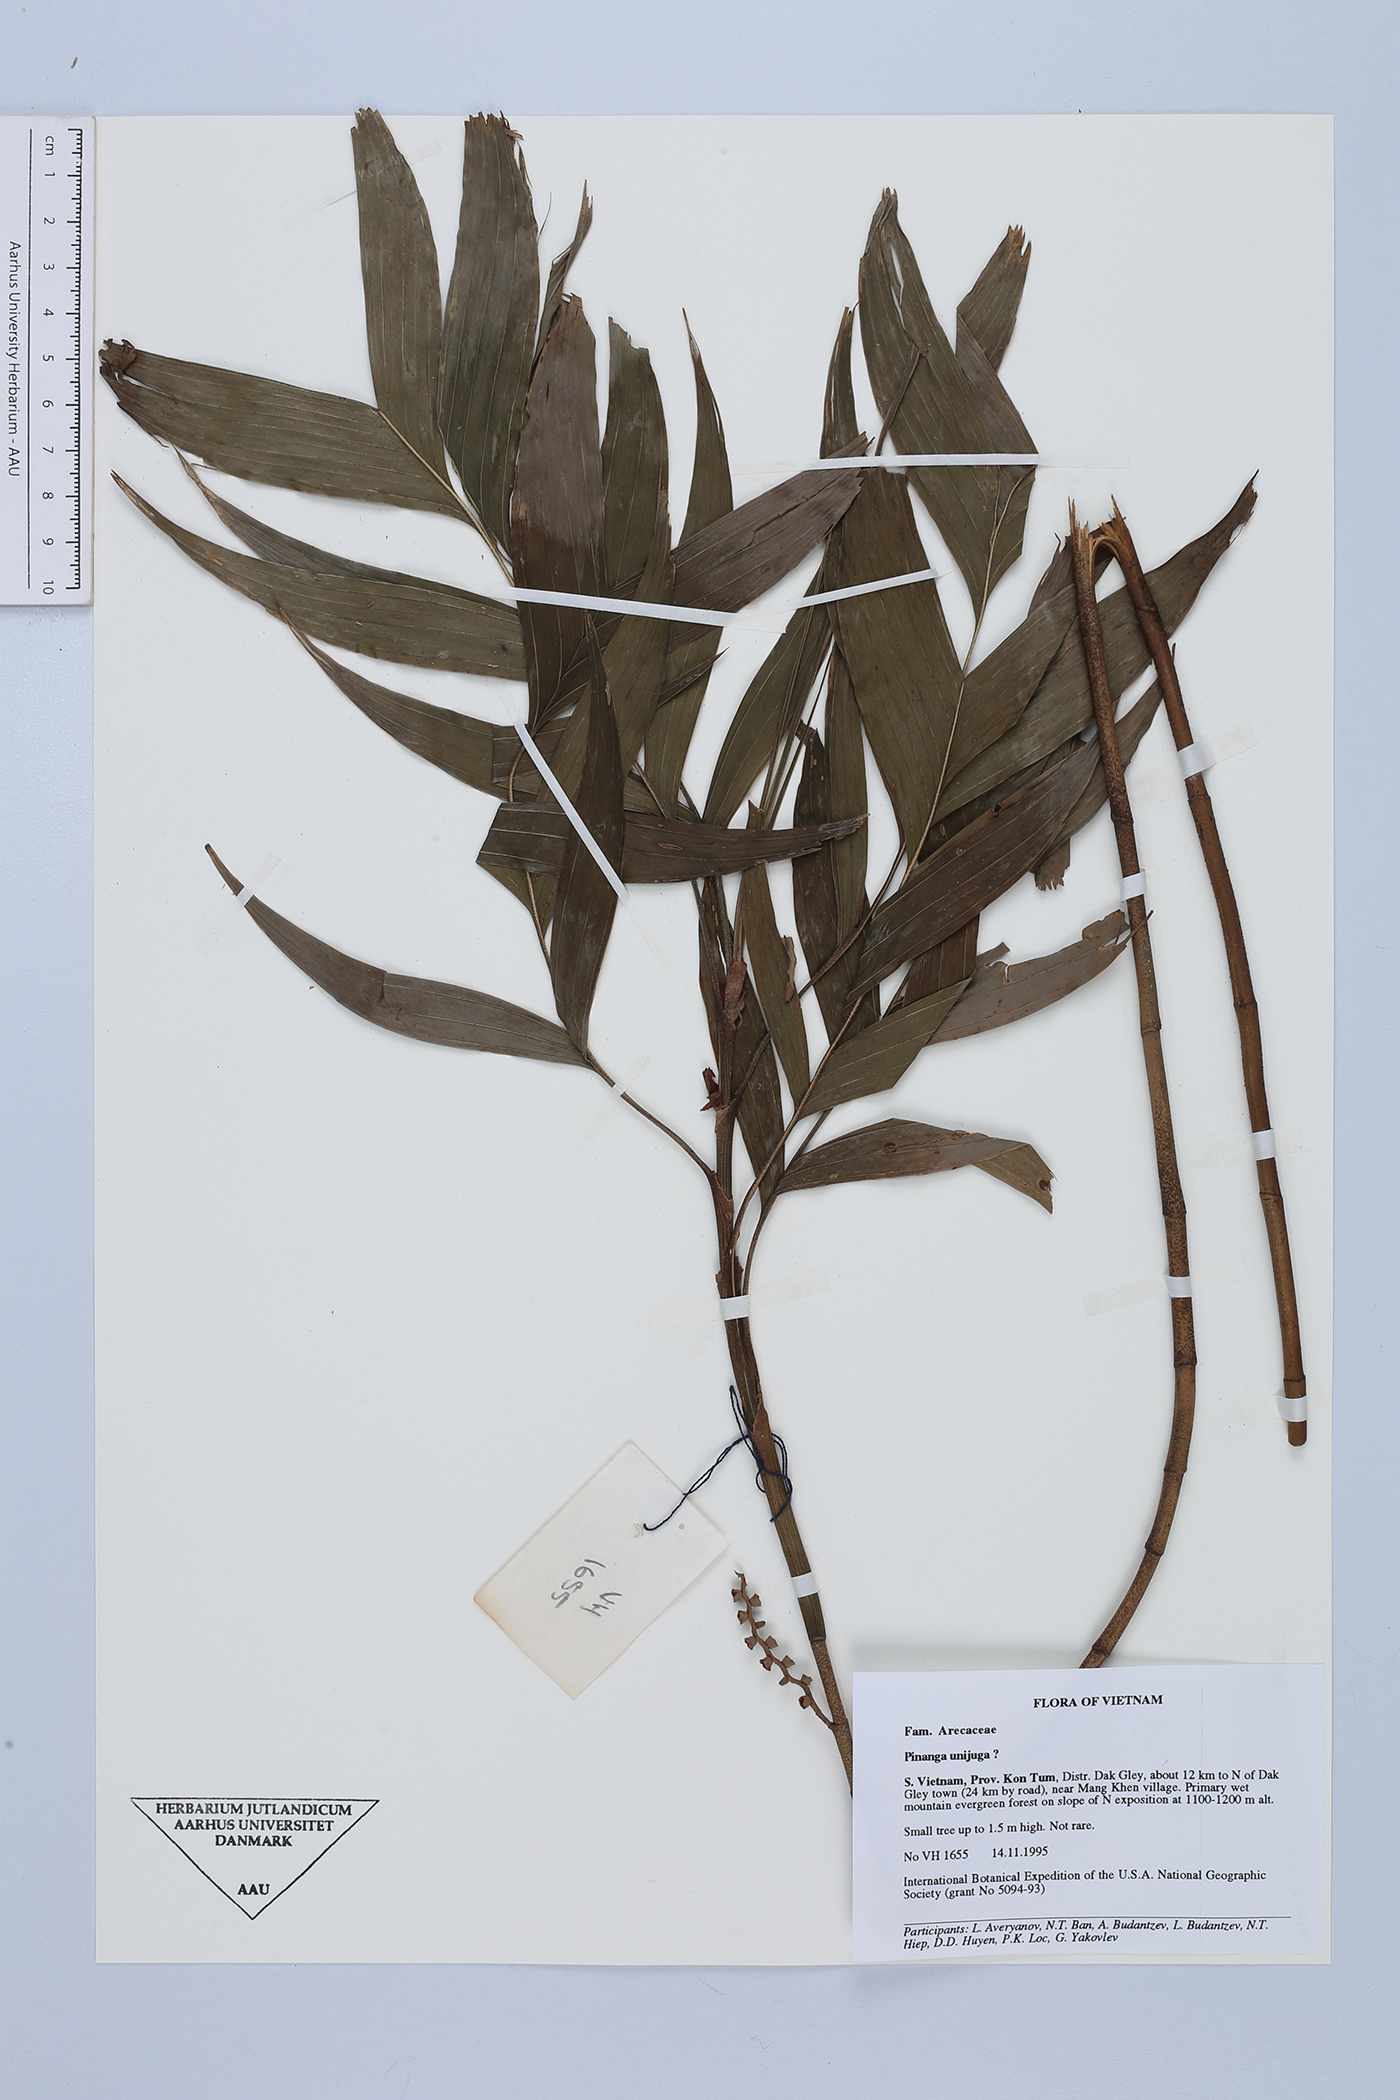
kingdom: Plantae
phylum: Tracheophyta
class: Liliopsida
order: Arecales
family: Arecaceae
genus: Pinanga
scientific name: Pinanga
